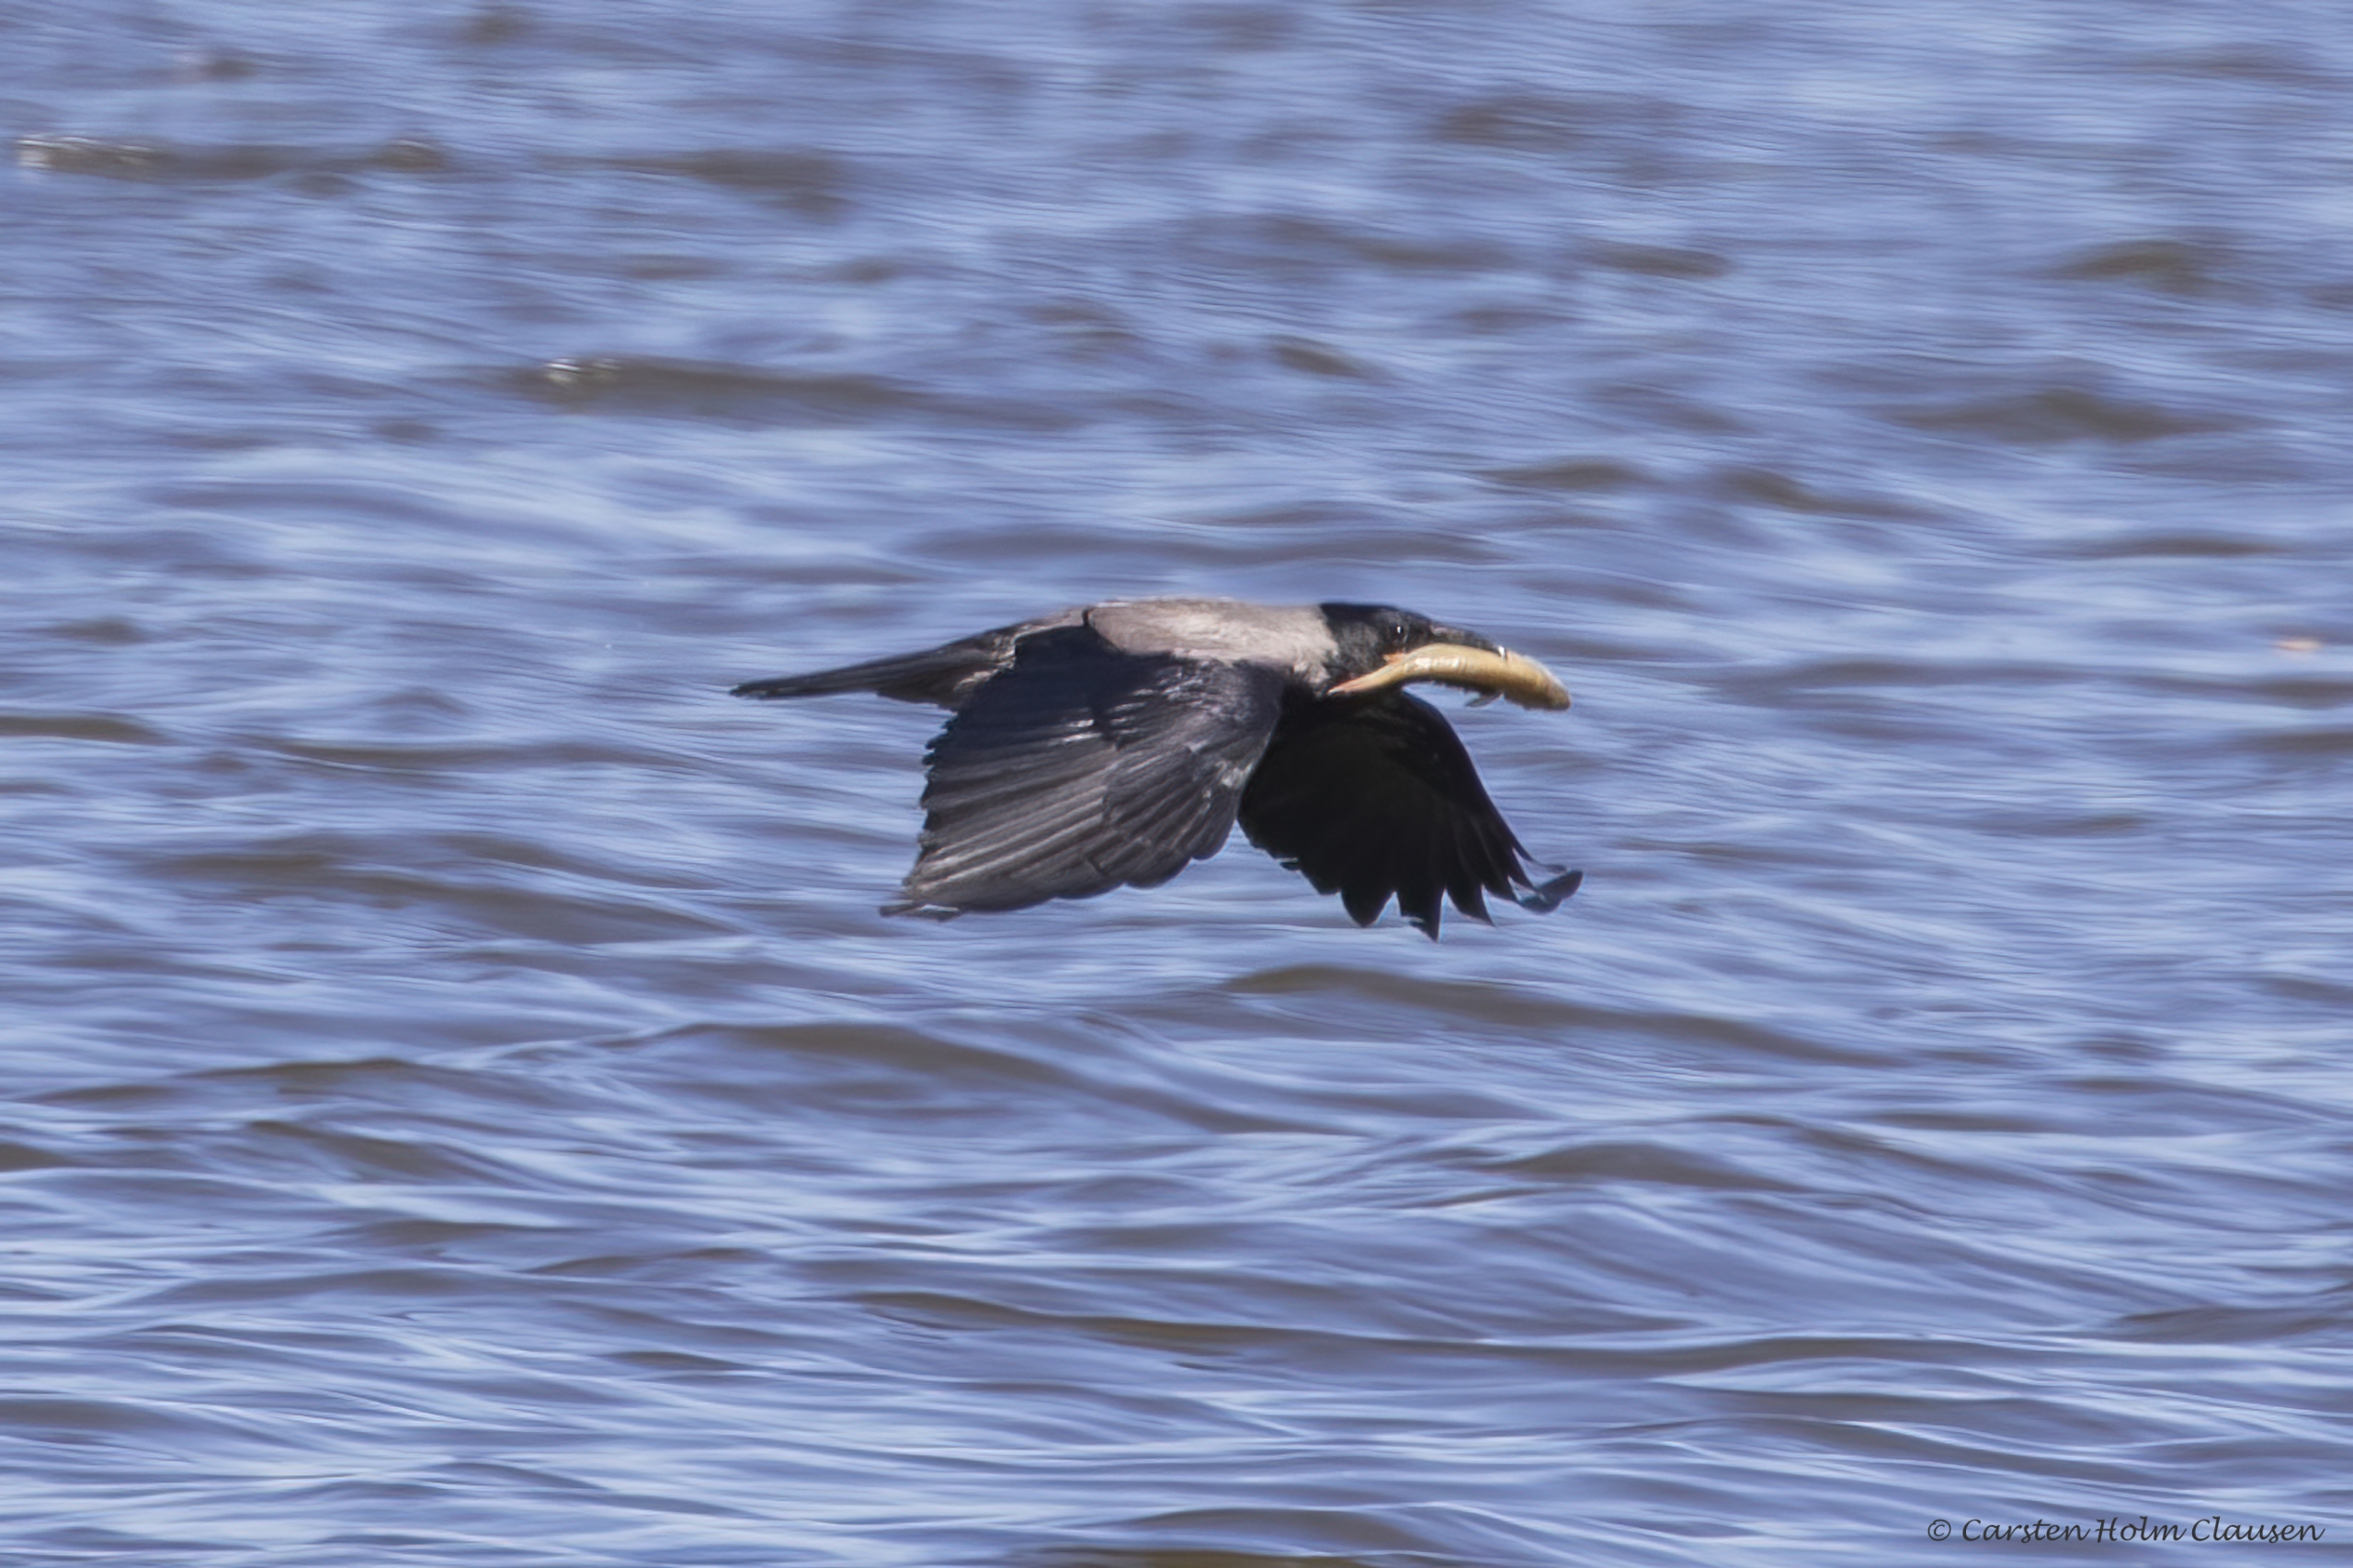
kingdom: Animalia
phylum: Chordata
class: Aves
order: Passeriformes
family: Corvidae
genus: Corvus
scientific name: Corvus cornix
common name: Gråkrage
